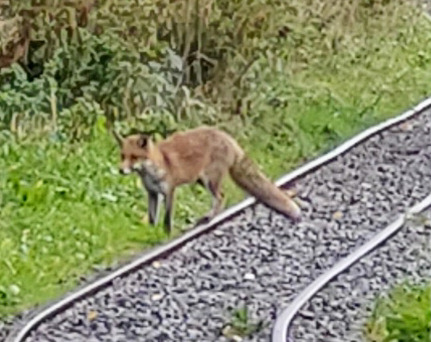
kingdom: Animalia
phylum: Chordata
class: Mammalia
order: Carnivora
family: Canidae
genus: Vulpes
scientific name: Vulpes vulpes
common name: Ræv
